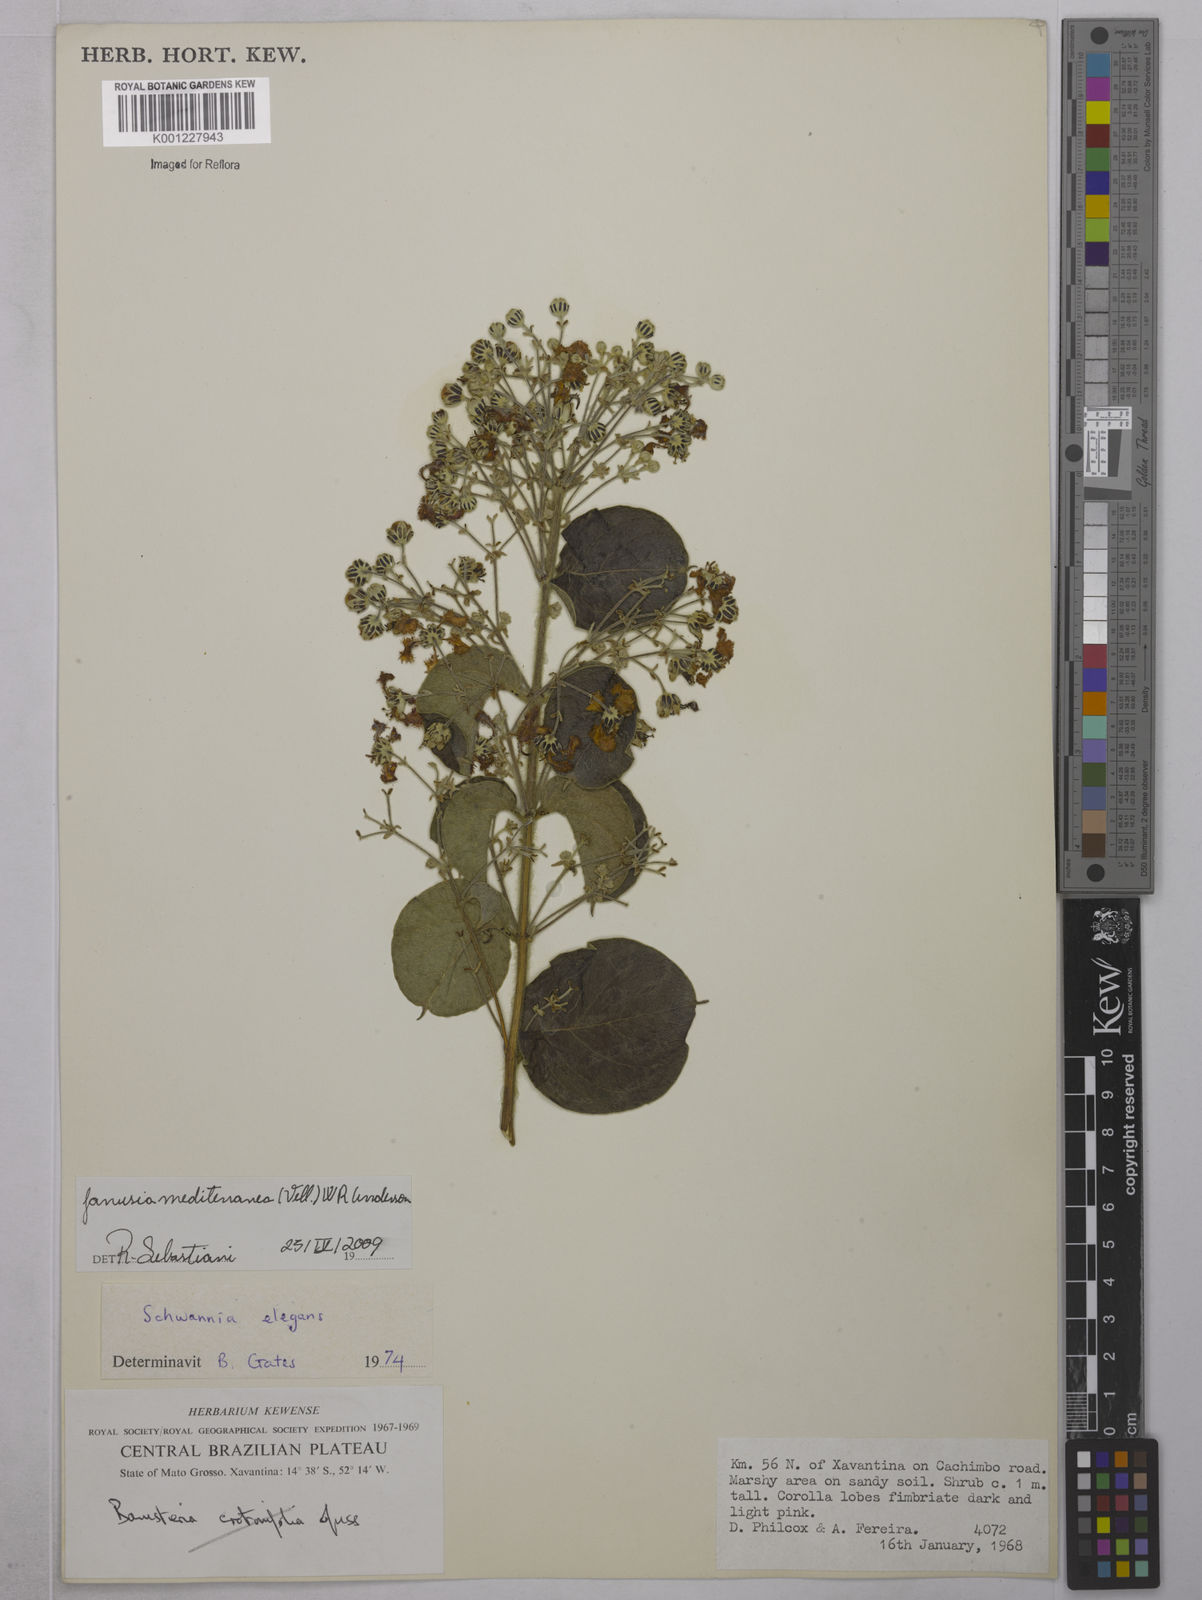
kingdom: Plantae
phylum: Tracheophyta
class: Magnoliopsida
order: Malpighiales
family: Malpighiaceae
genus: Janusia
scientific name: Janusia mediterranea
